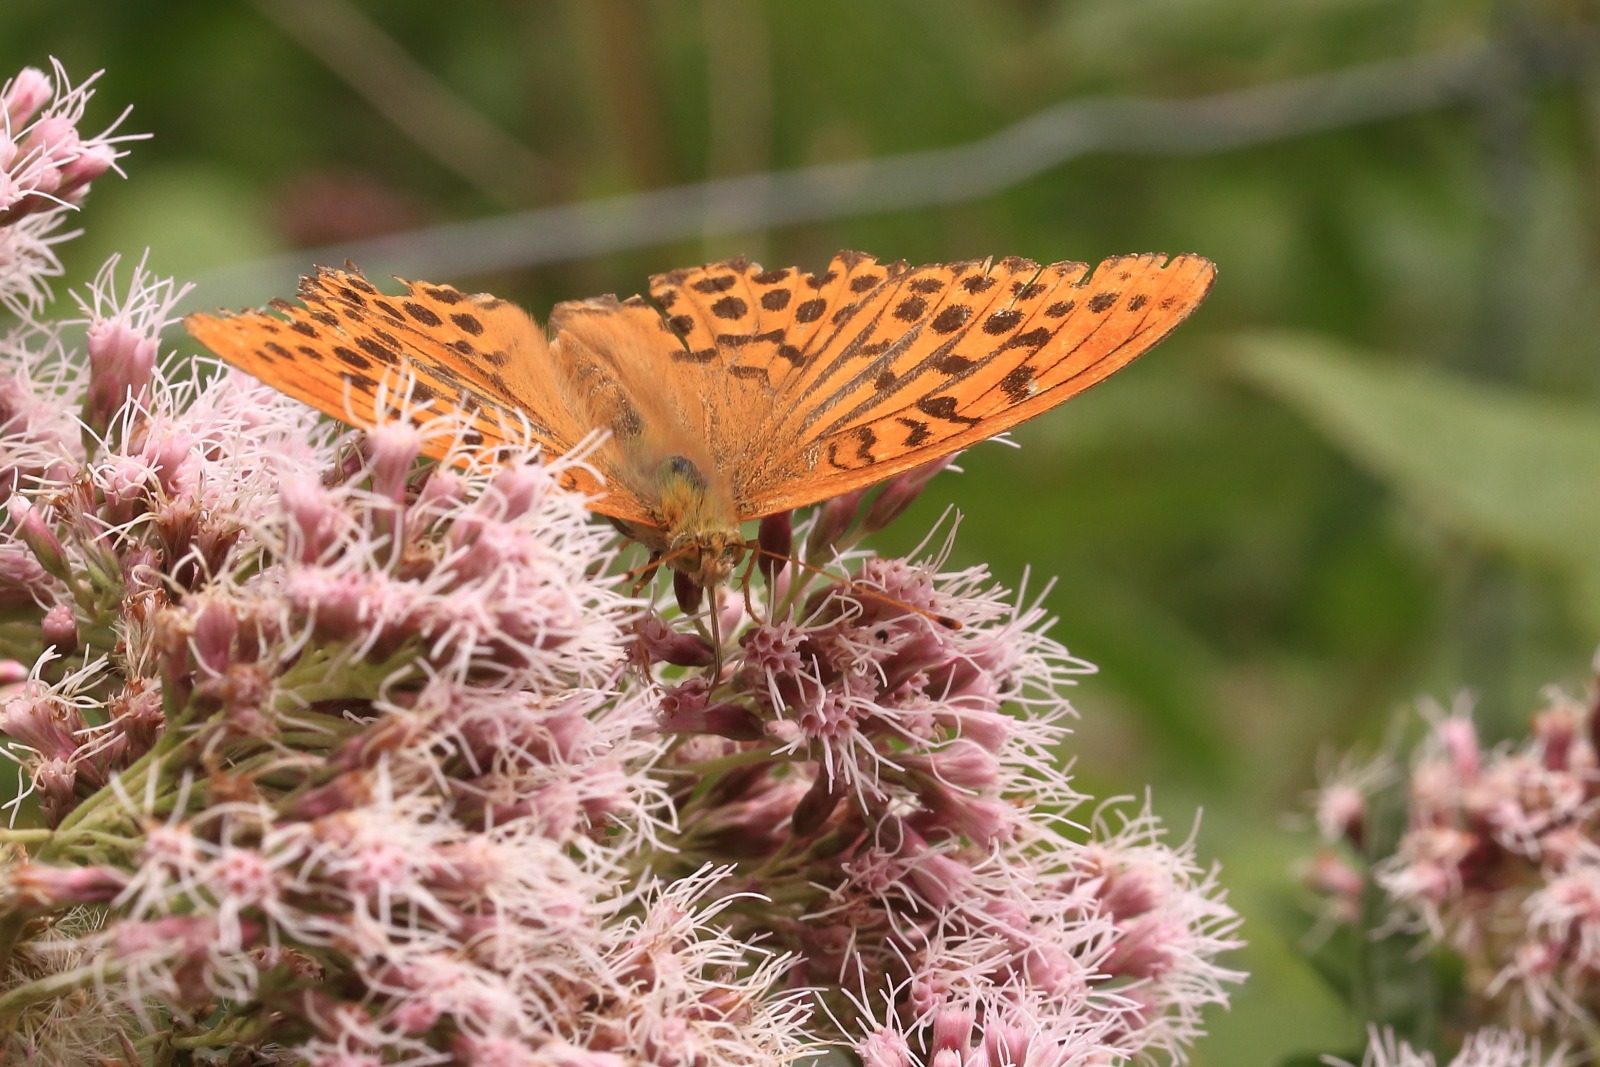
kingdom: Animalia
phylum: Arthropoda
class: Insecta
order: Lepidoptera
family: Nymphalidae
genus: Argynnis
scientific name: Argynnis paphia
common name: Kejserkåbe
